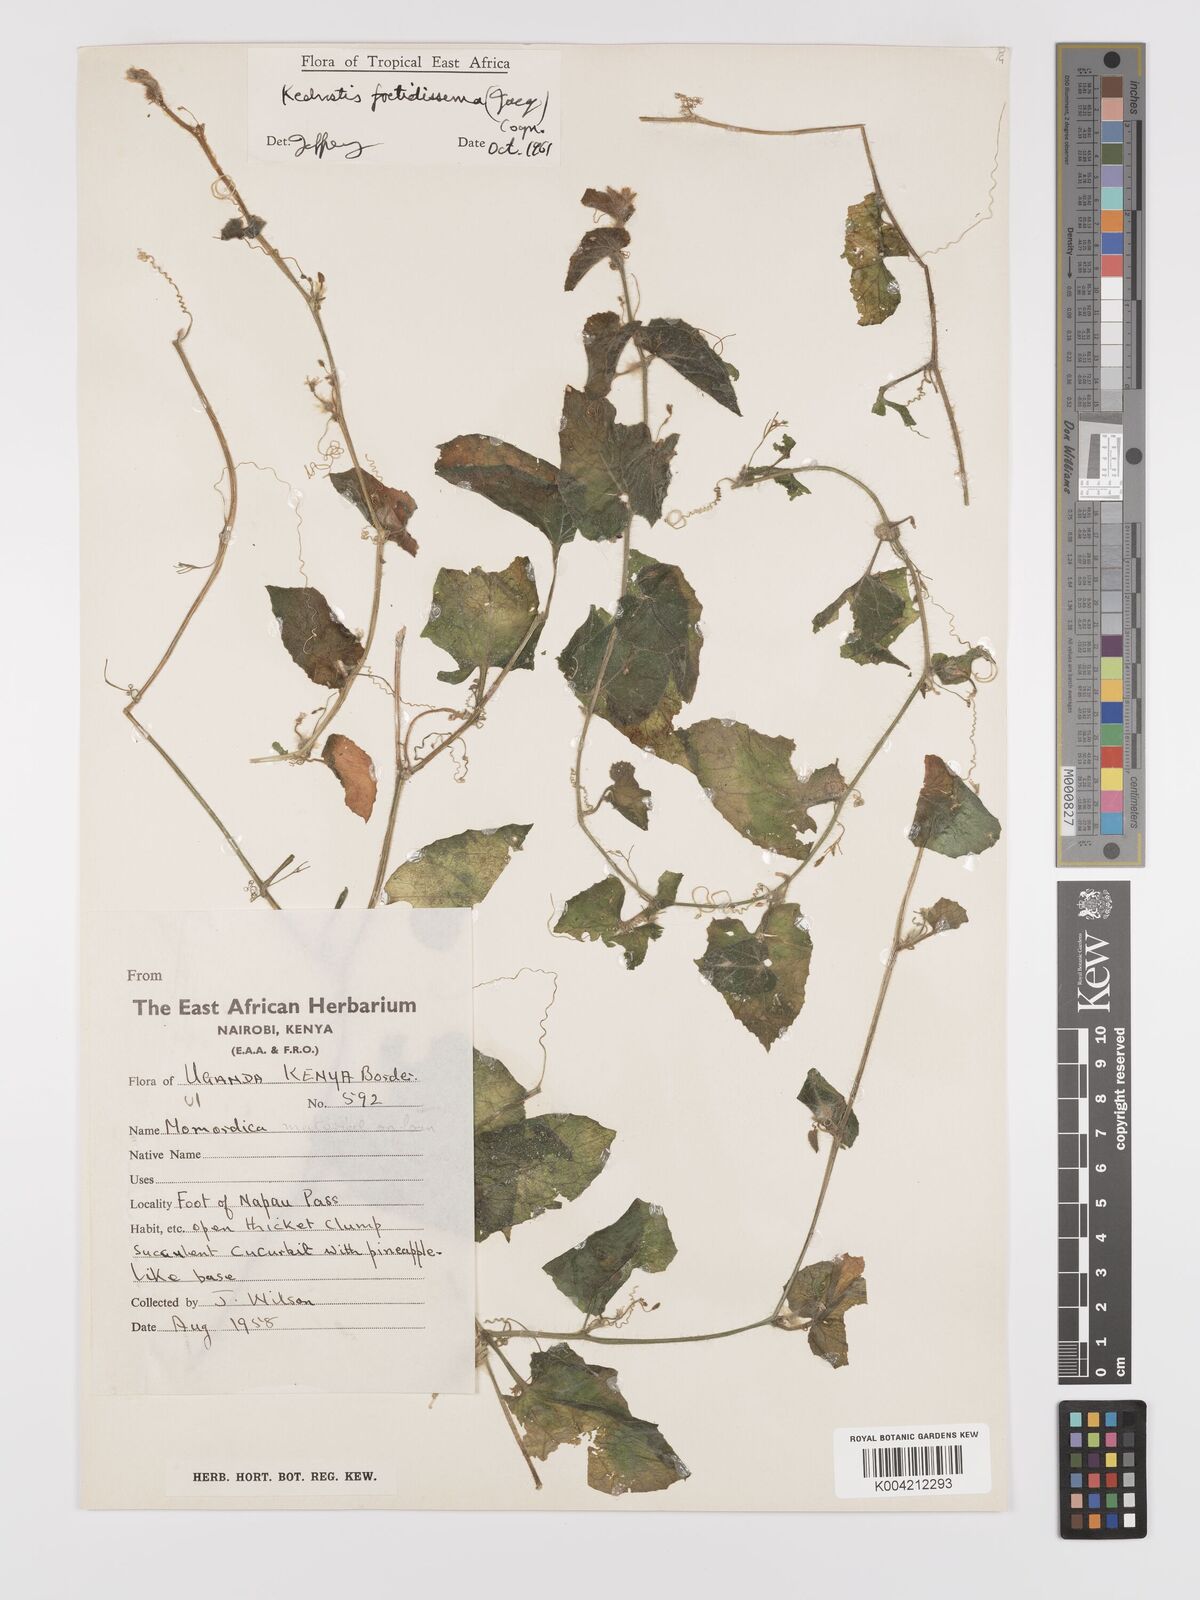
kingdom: Plantae
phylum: Tracheophyta
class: Magnoliopsida
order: Cucurbitales
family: Cucurbitaceae
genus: Kedrostis
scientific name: Kedrostis foetidissima
